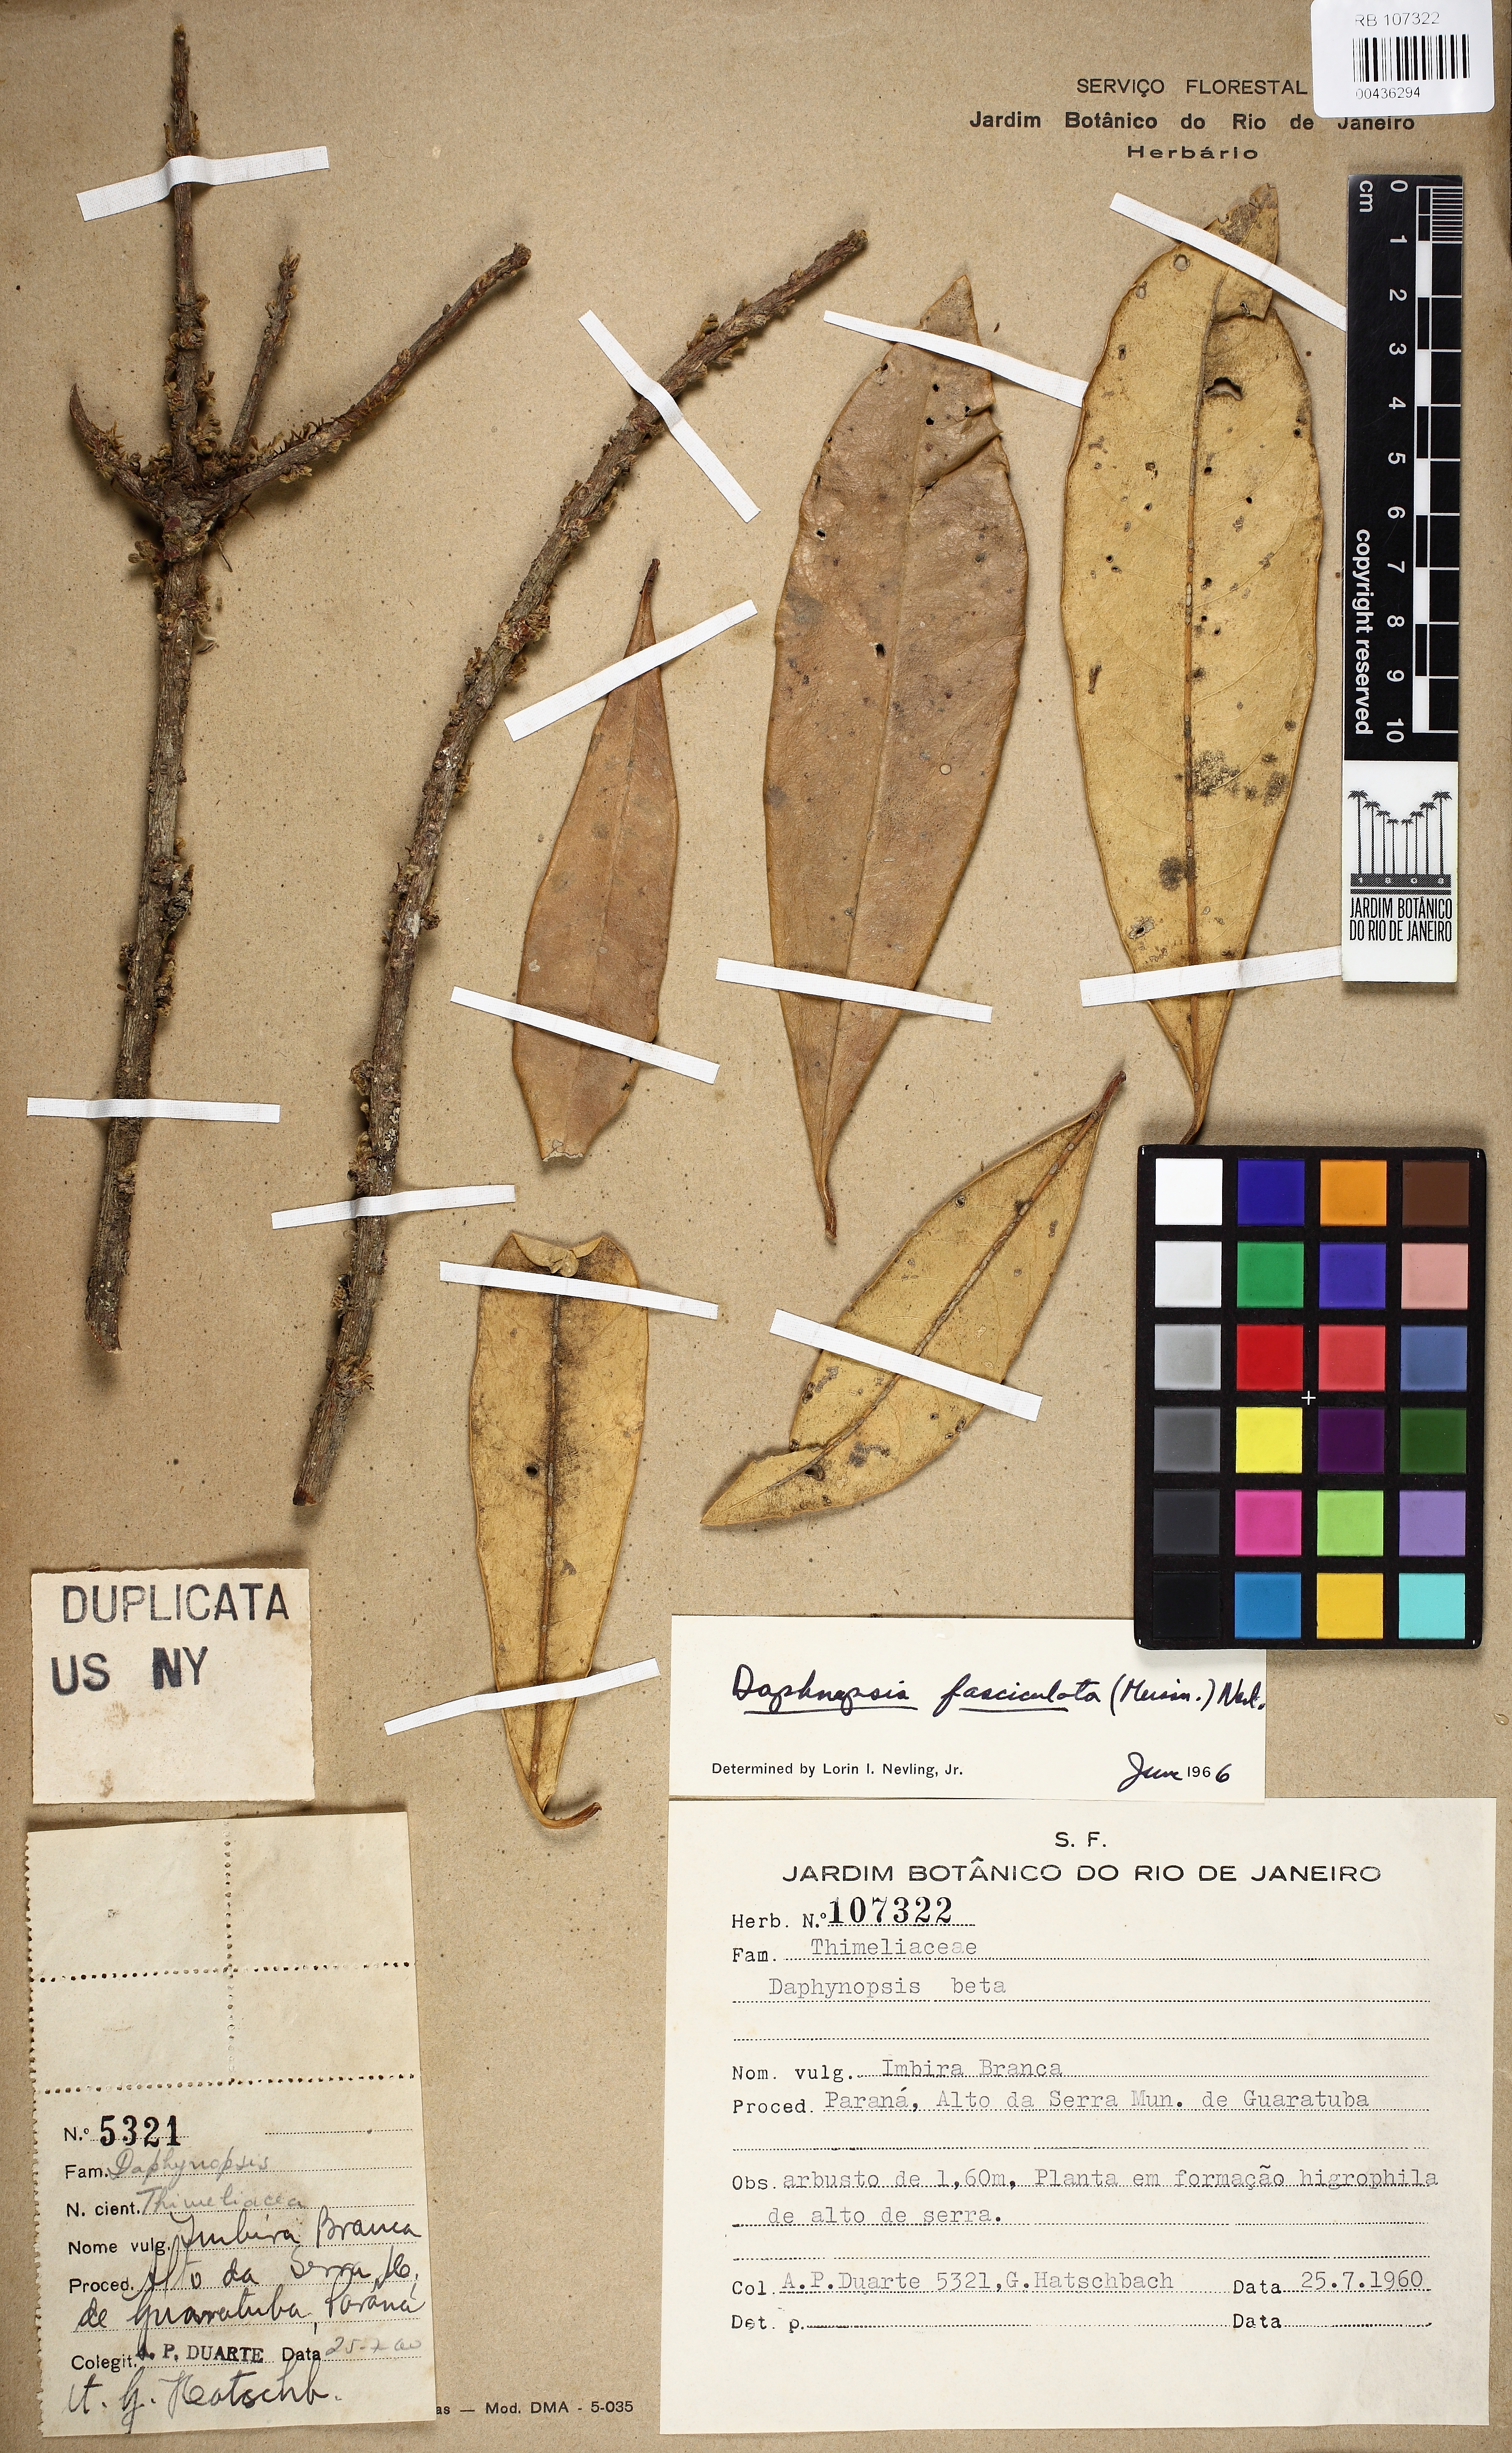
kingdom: Plantae
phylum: Tracheophyta
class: Magnoliopsida
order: Malvales
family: Thymelaeaceae
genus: Daphnopsis
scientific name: Daphnopsis fasciculata
